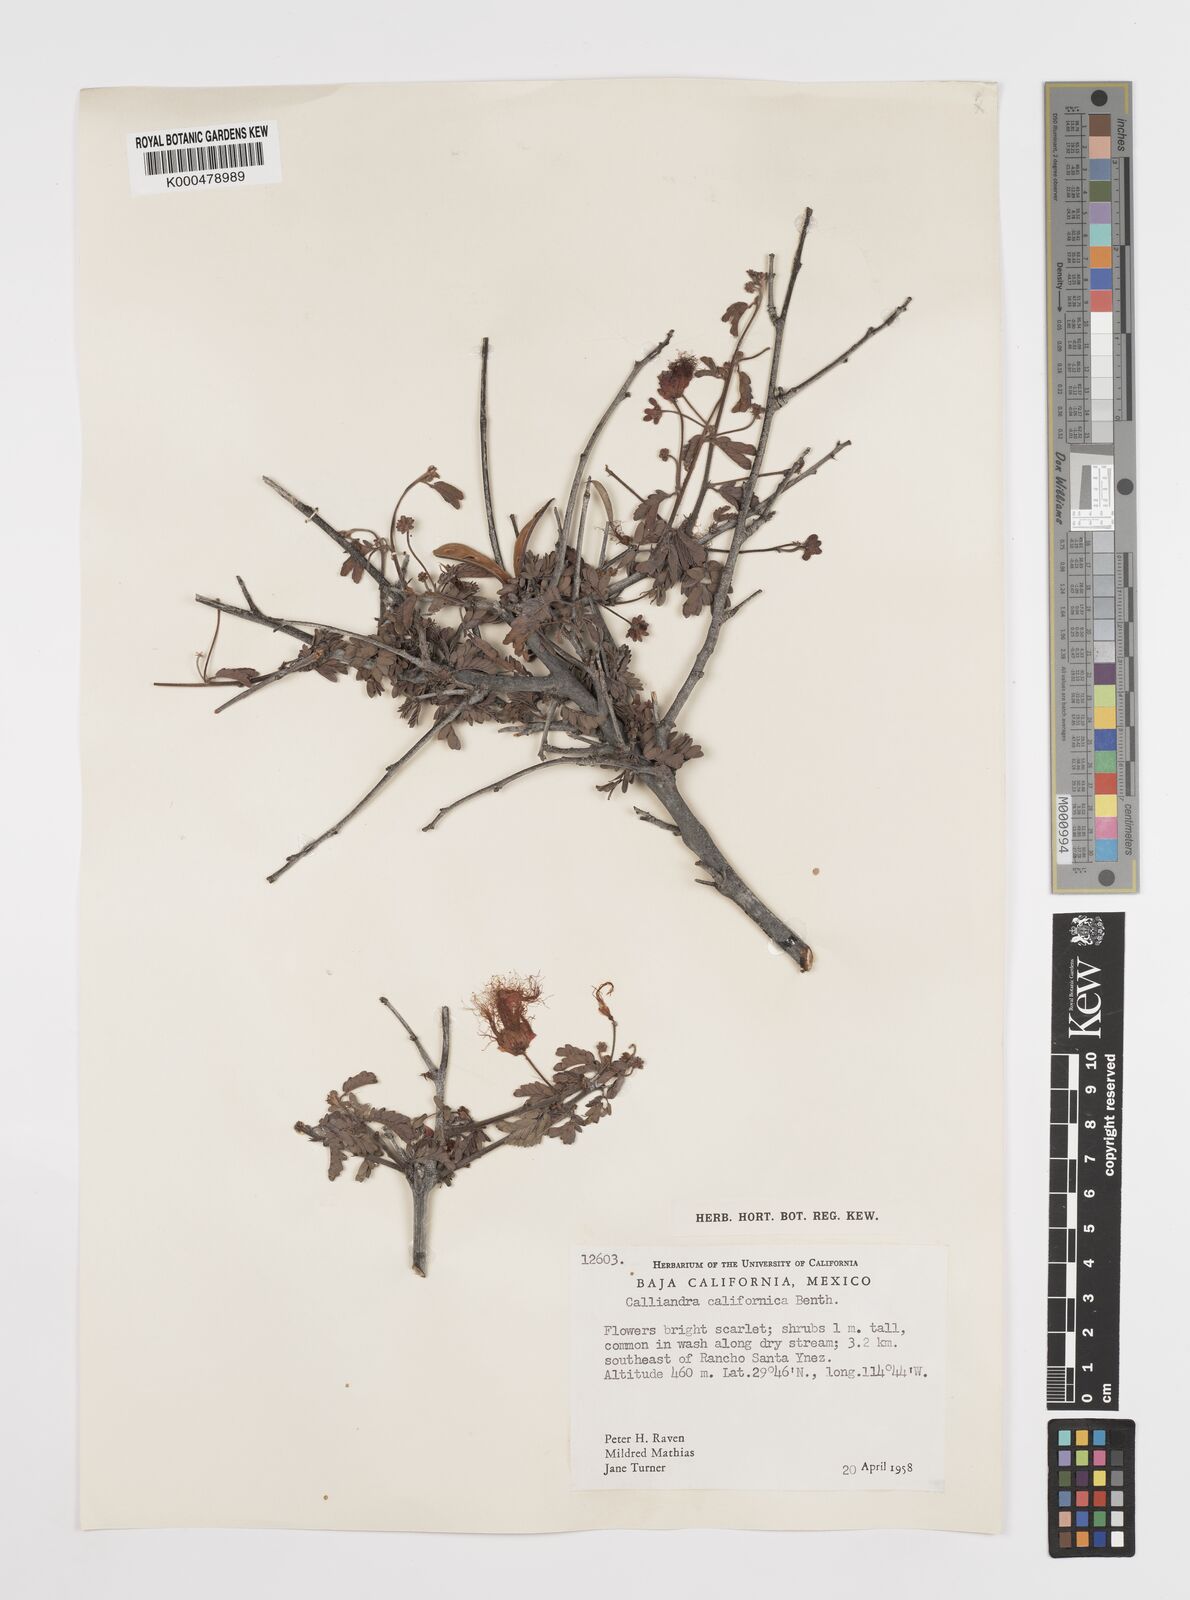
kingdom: Plantae
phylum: Tracheophyta
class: Magnoliopsida
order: Fabales
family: Fabaceae
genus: Calliandra
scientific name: Calliandra californica
